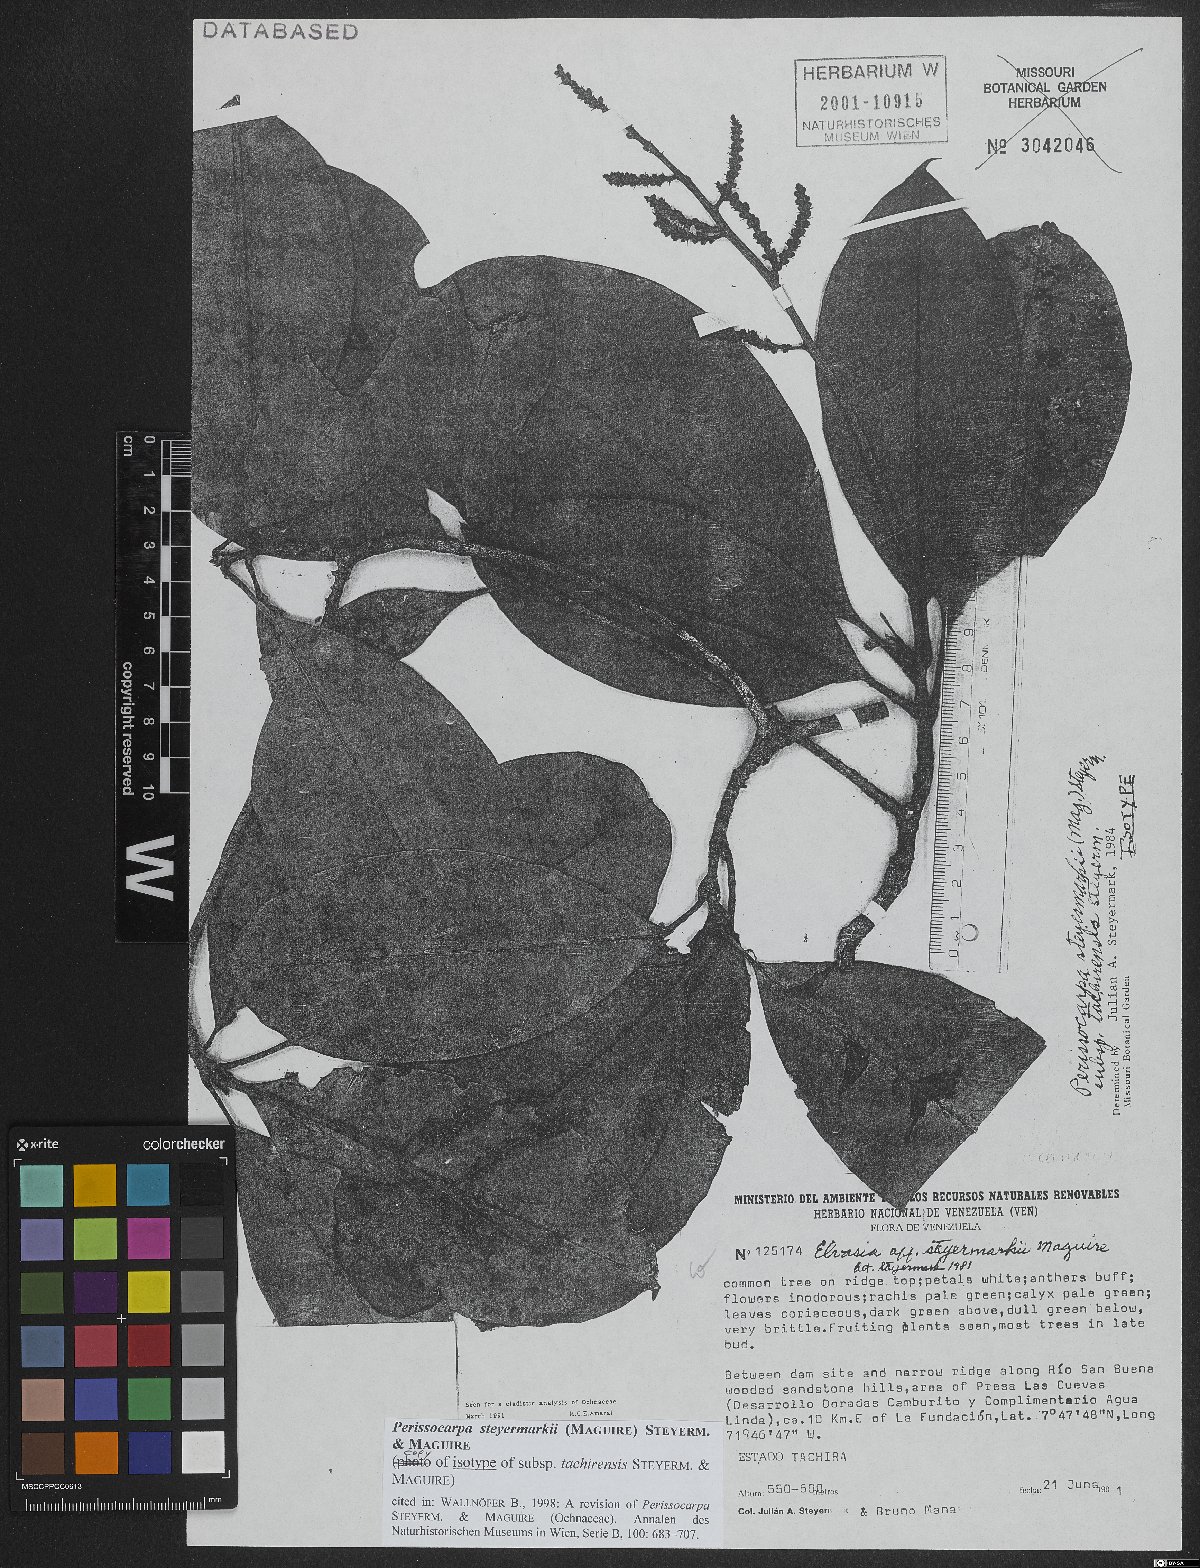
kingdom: Plantae
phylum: Tracheophyta
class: Magnoliopsida
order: Malpighiales
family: Ochnaceae
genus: Perissocarpa
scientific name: Perissocarpa steyermarkii
